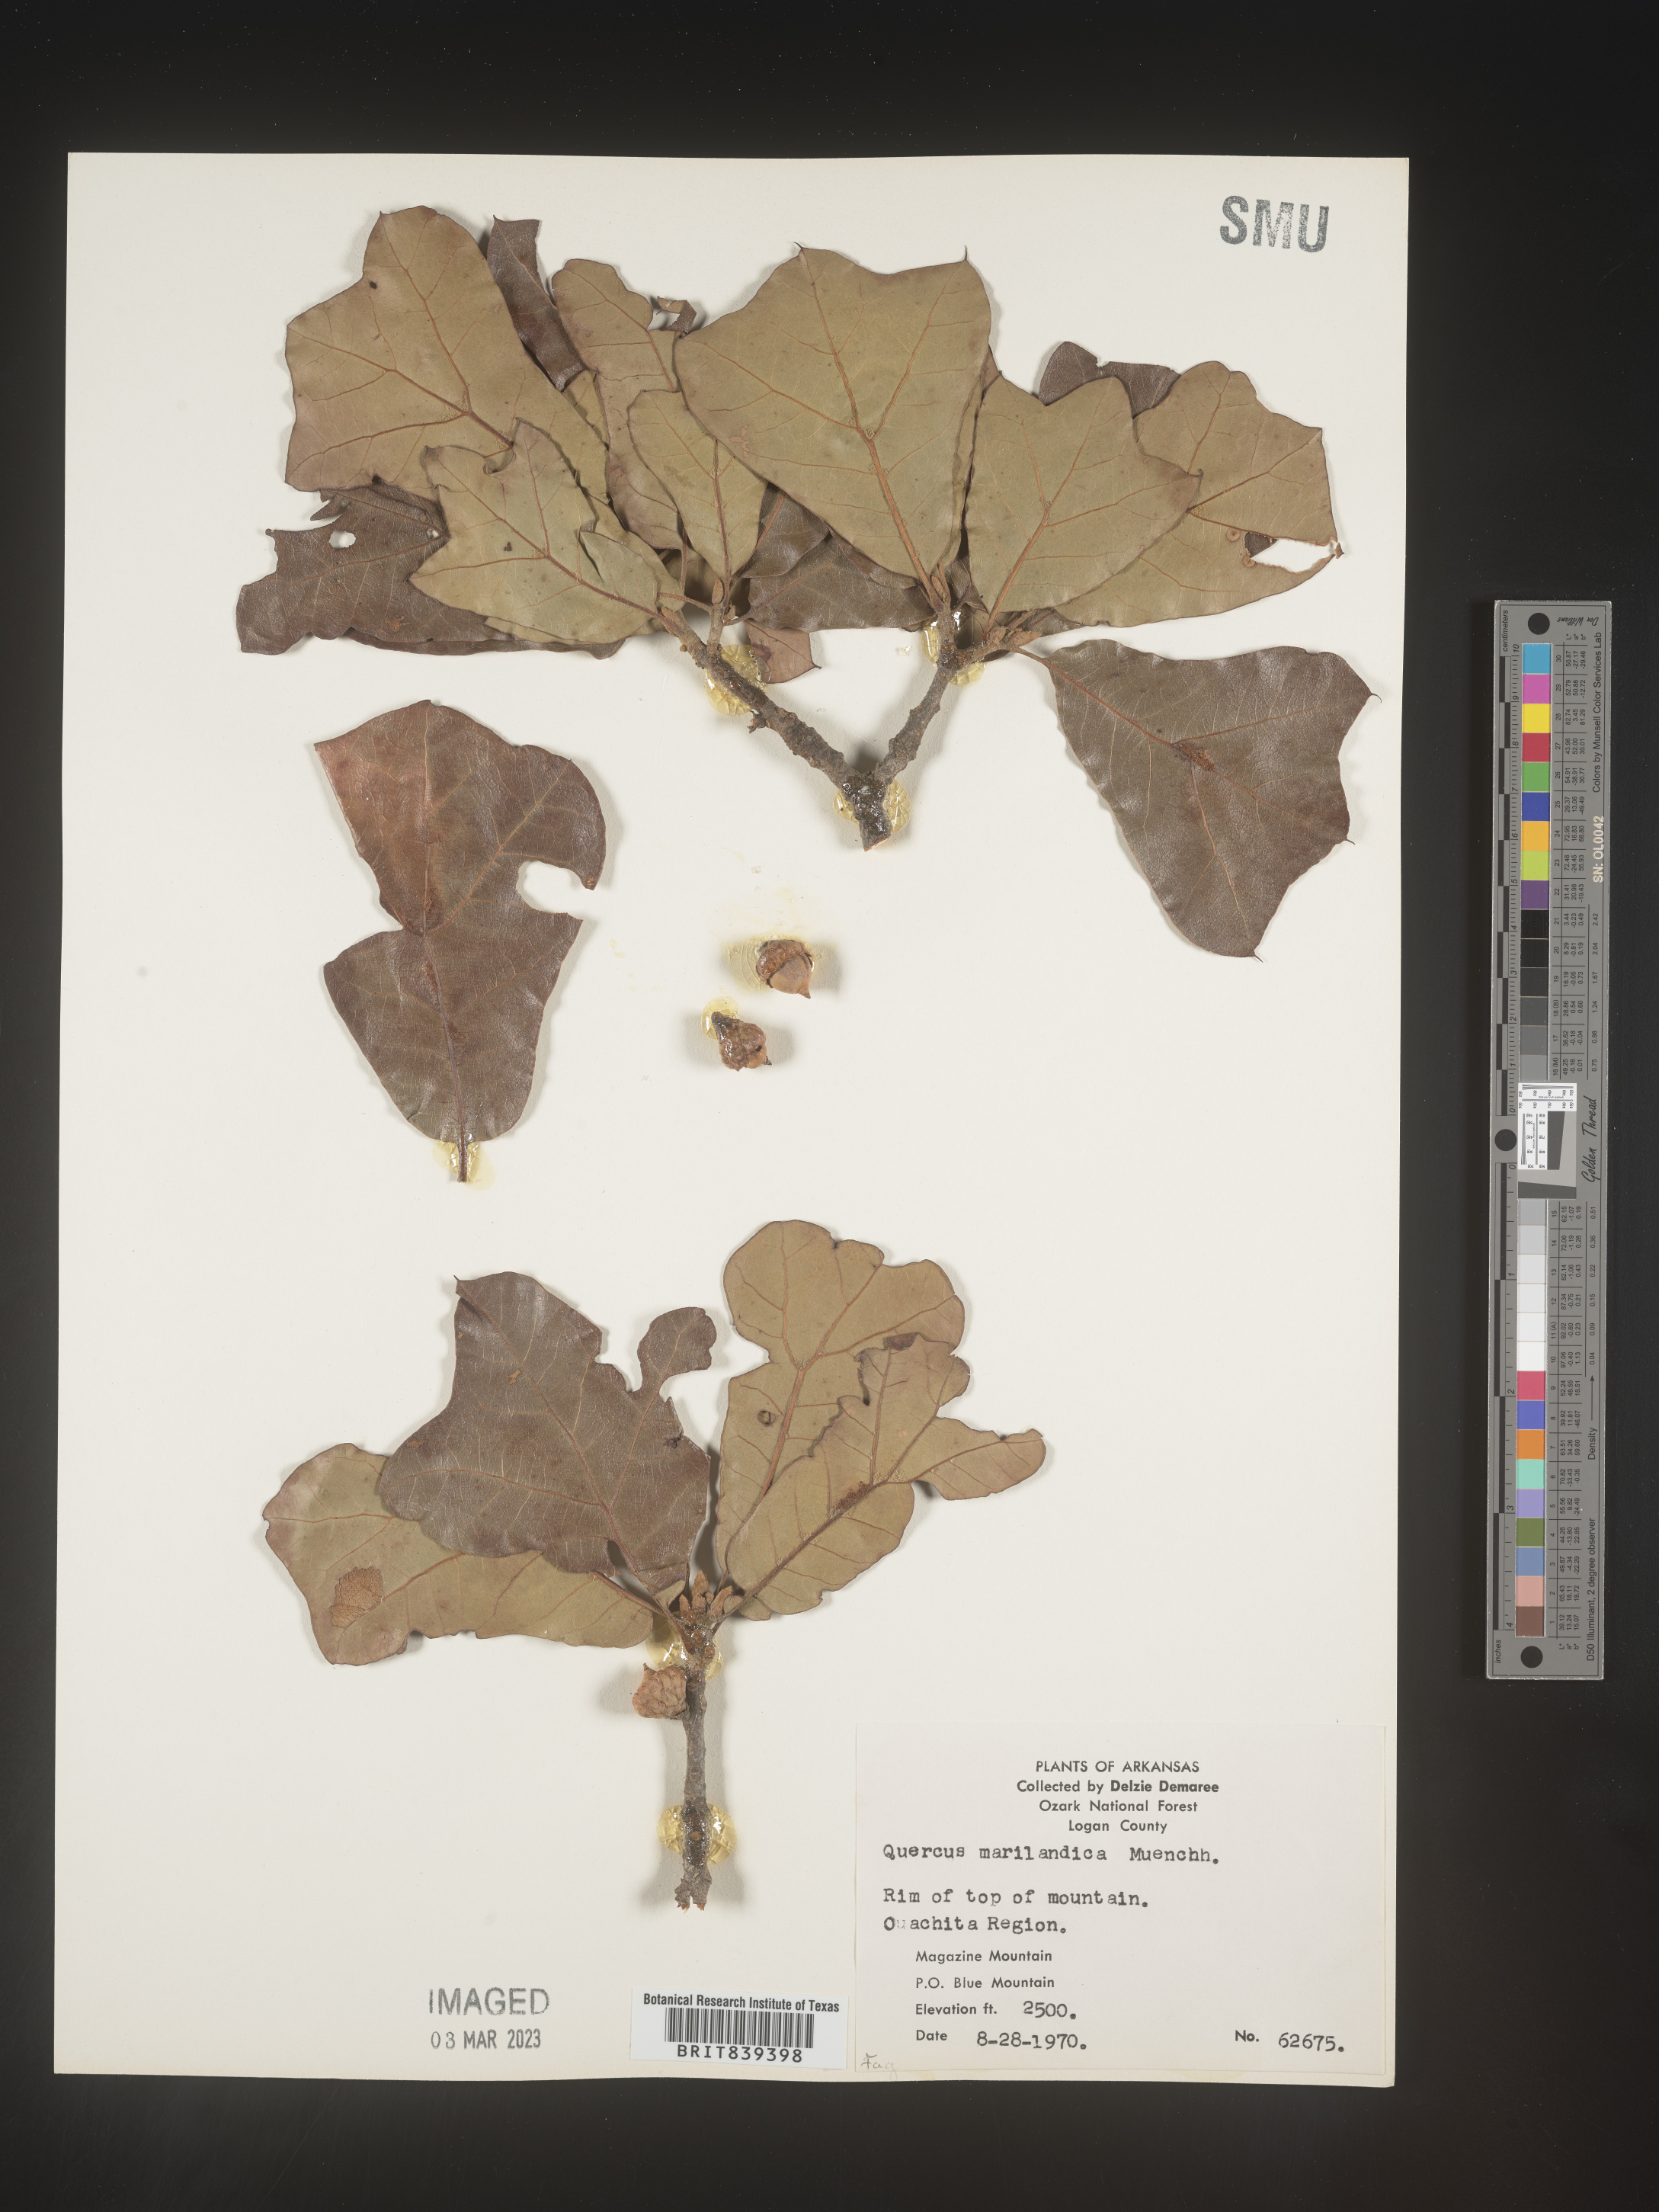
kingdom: Plantae
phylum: Tracheophyta
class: Magnoliopsida
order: Fagales
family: Fagaceae
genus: Quercus
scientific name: Quercus marilandica
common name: Blackjack oak
